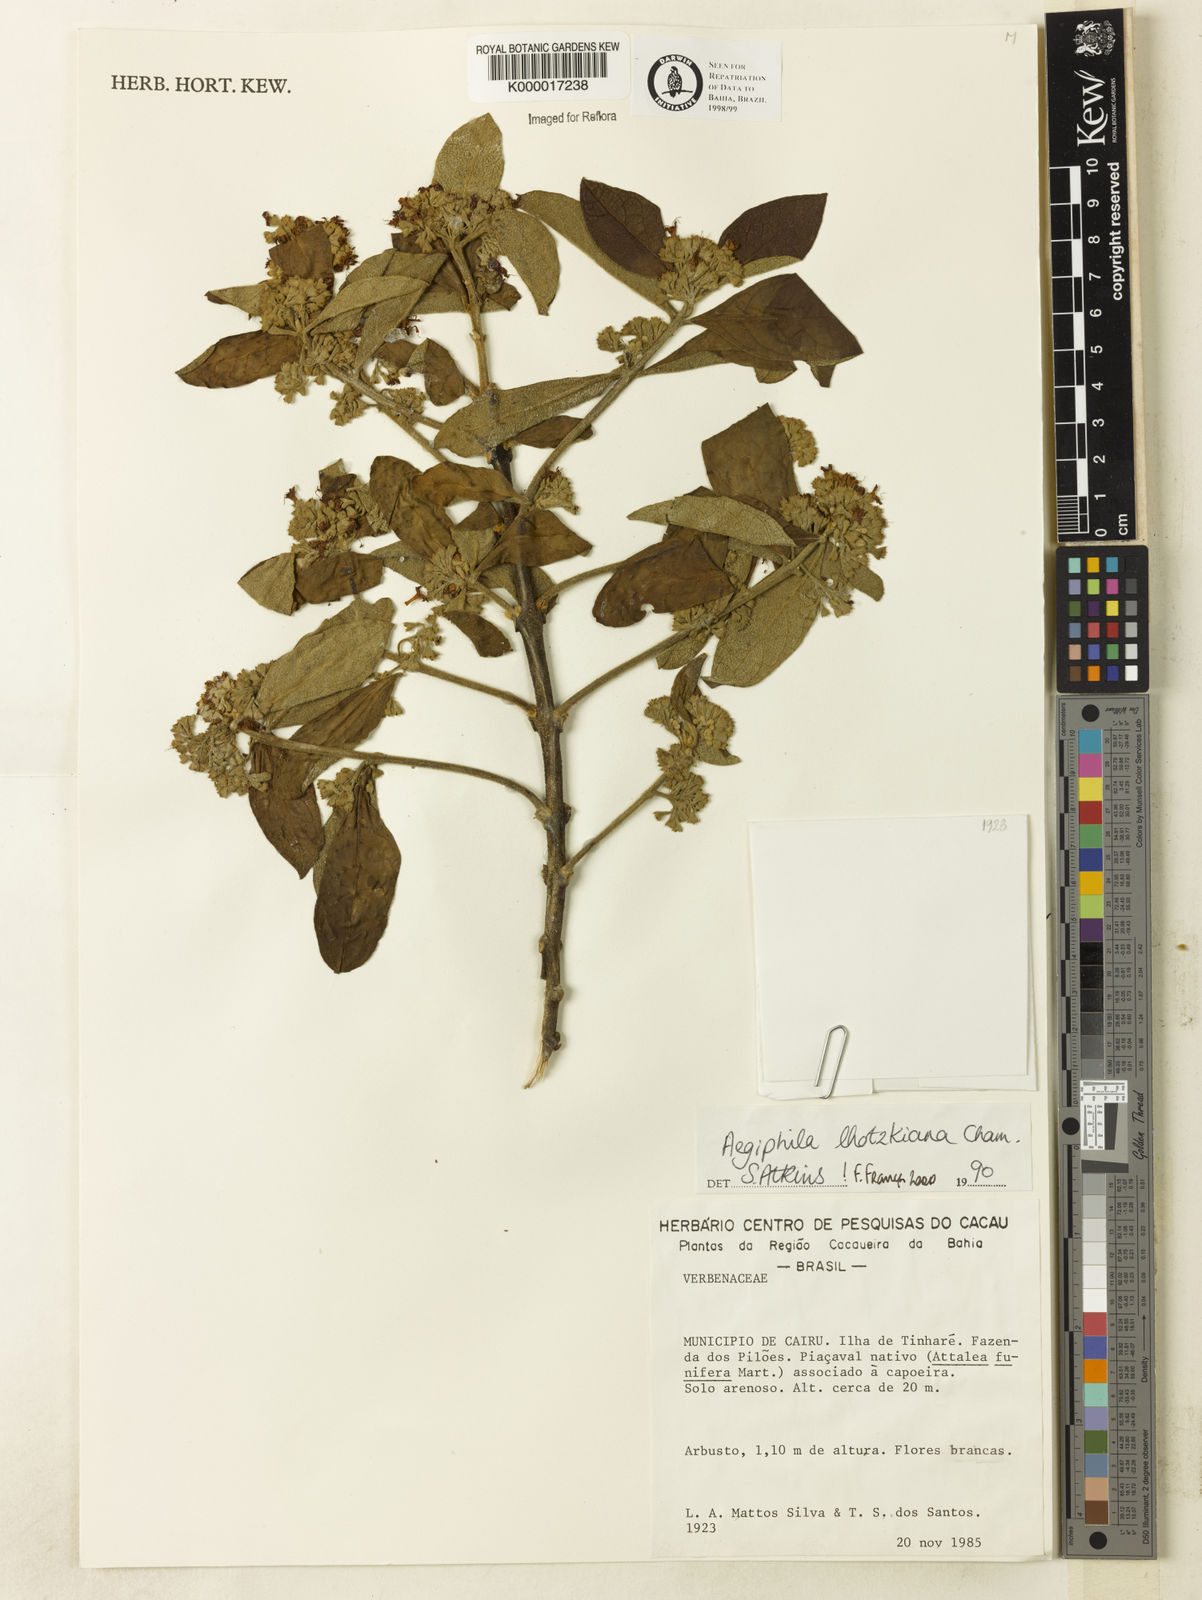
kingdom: Plantae
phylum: Tracheophyta
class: Magnoliopsida
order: Lamiales
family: Lamiaceae
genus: Aegiphila
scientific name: Aegiphila verticillata
